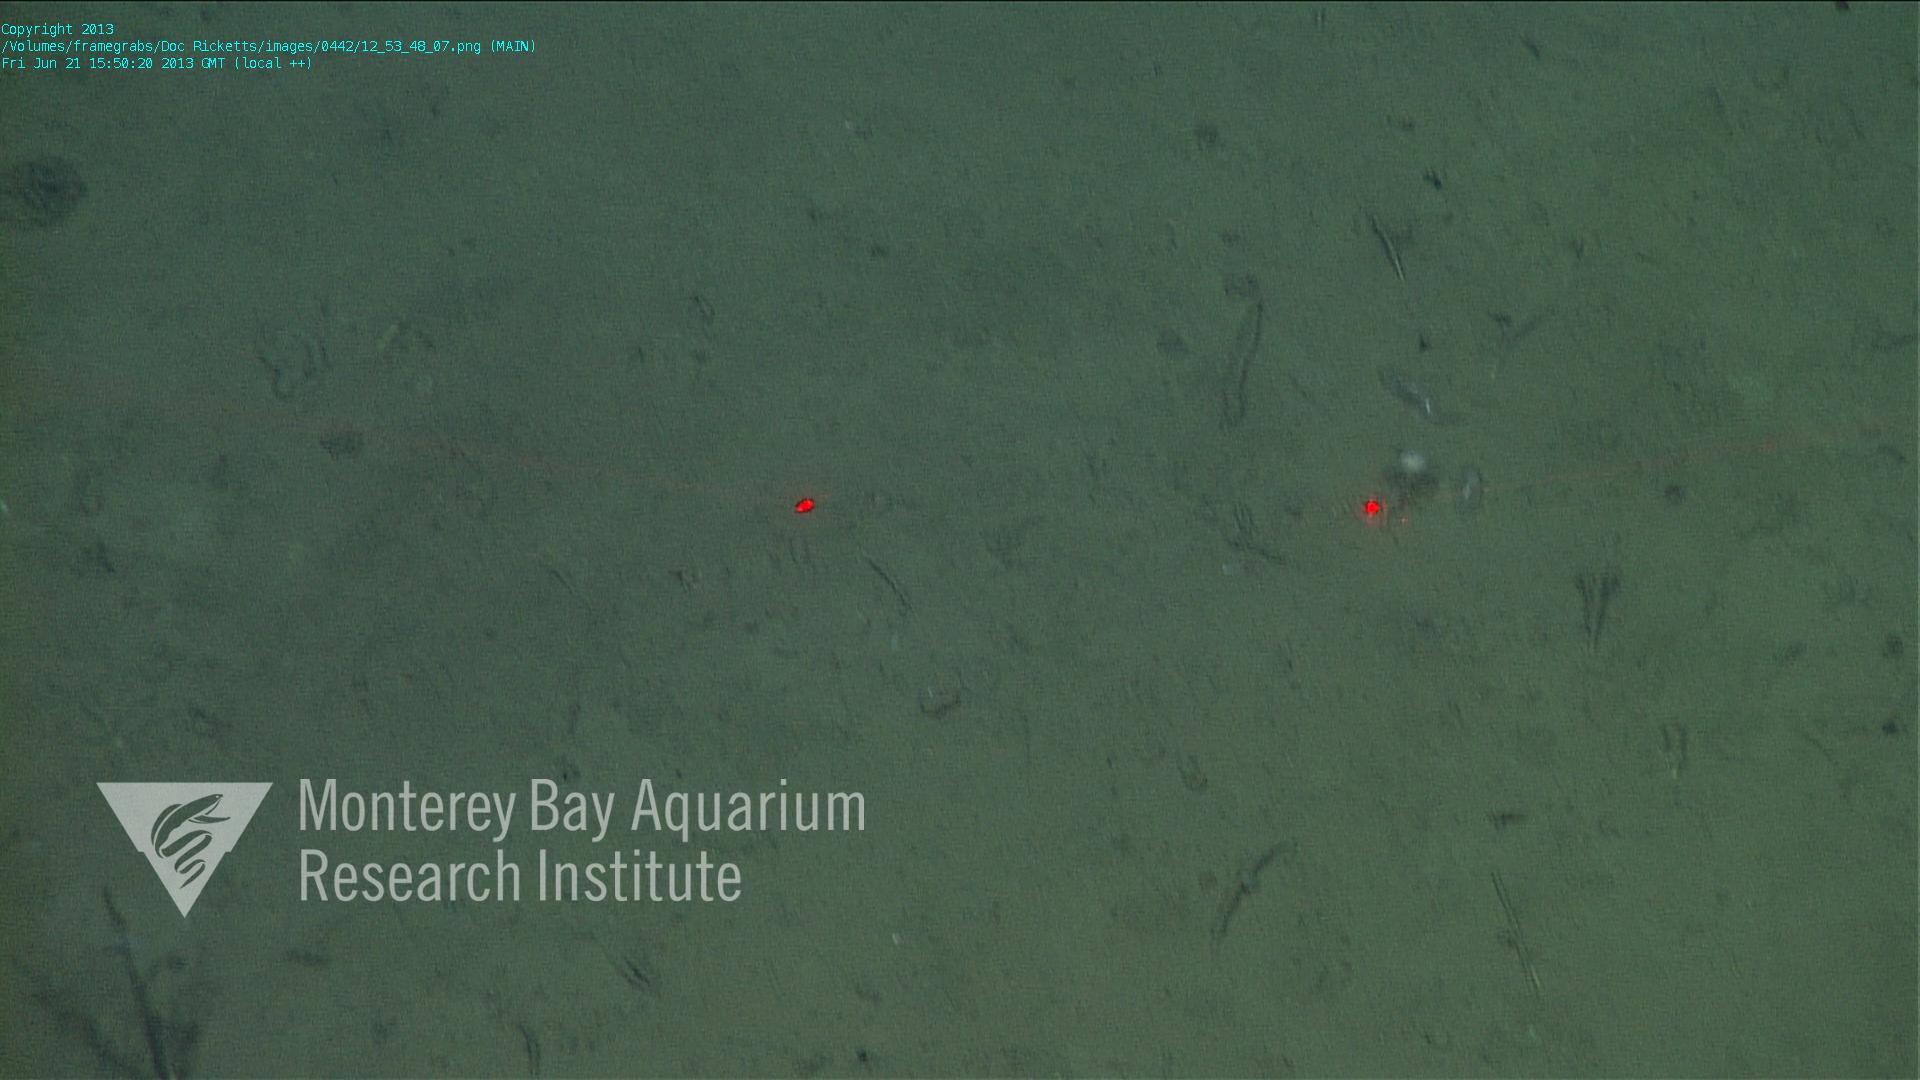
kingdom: Animalia
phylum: Porifera
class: Demospongiae
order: Poecilosclerida
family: Cladorhizidae
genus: Cladorhiza
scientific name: Cladorhiza
